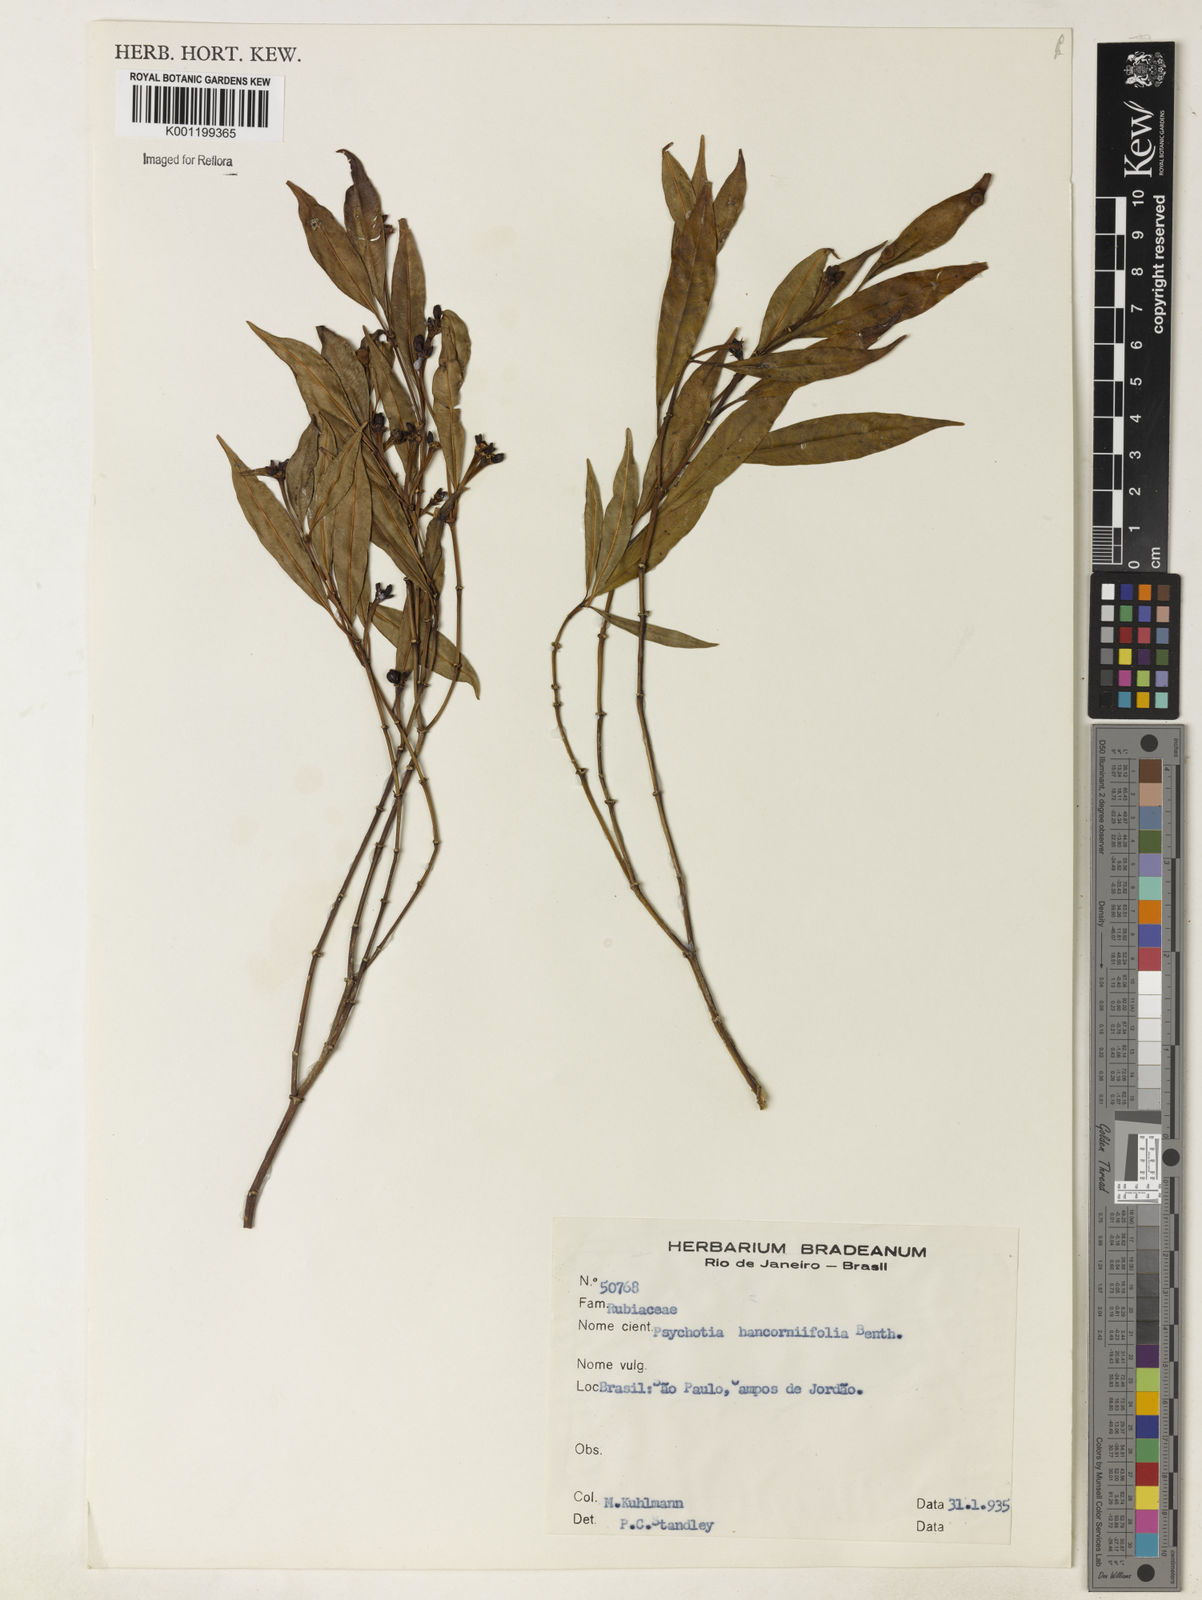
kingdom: Plantae
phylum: Tracheophyta
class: Magnoliopsida
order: Gentianales
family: Rubiaceae
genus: Palicourea
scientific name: Palicourea sessilis
